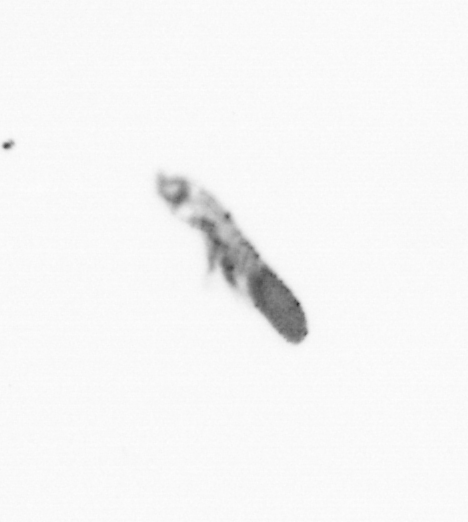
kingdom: Animalia
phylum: Arthropoda
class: Copepoda
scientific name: Copepoda
